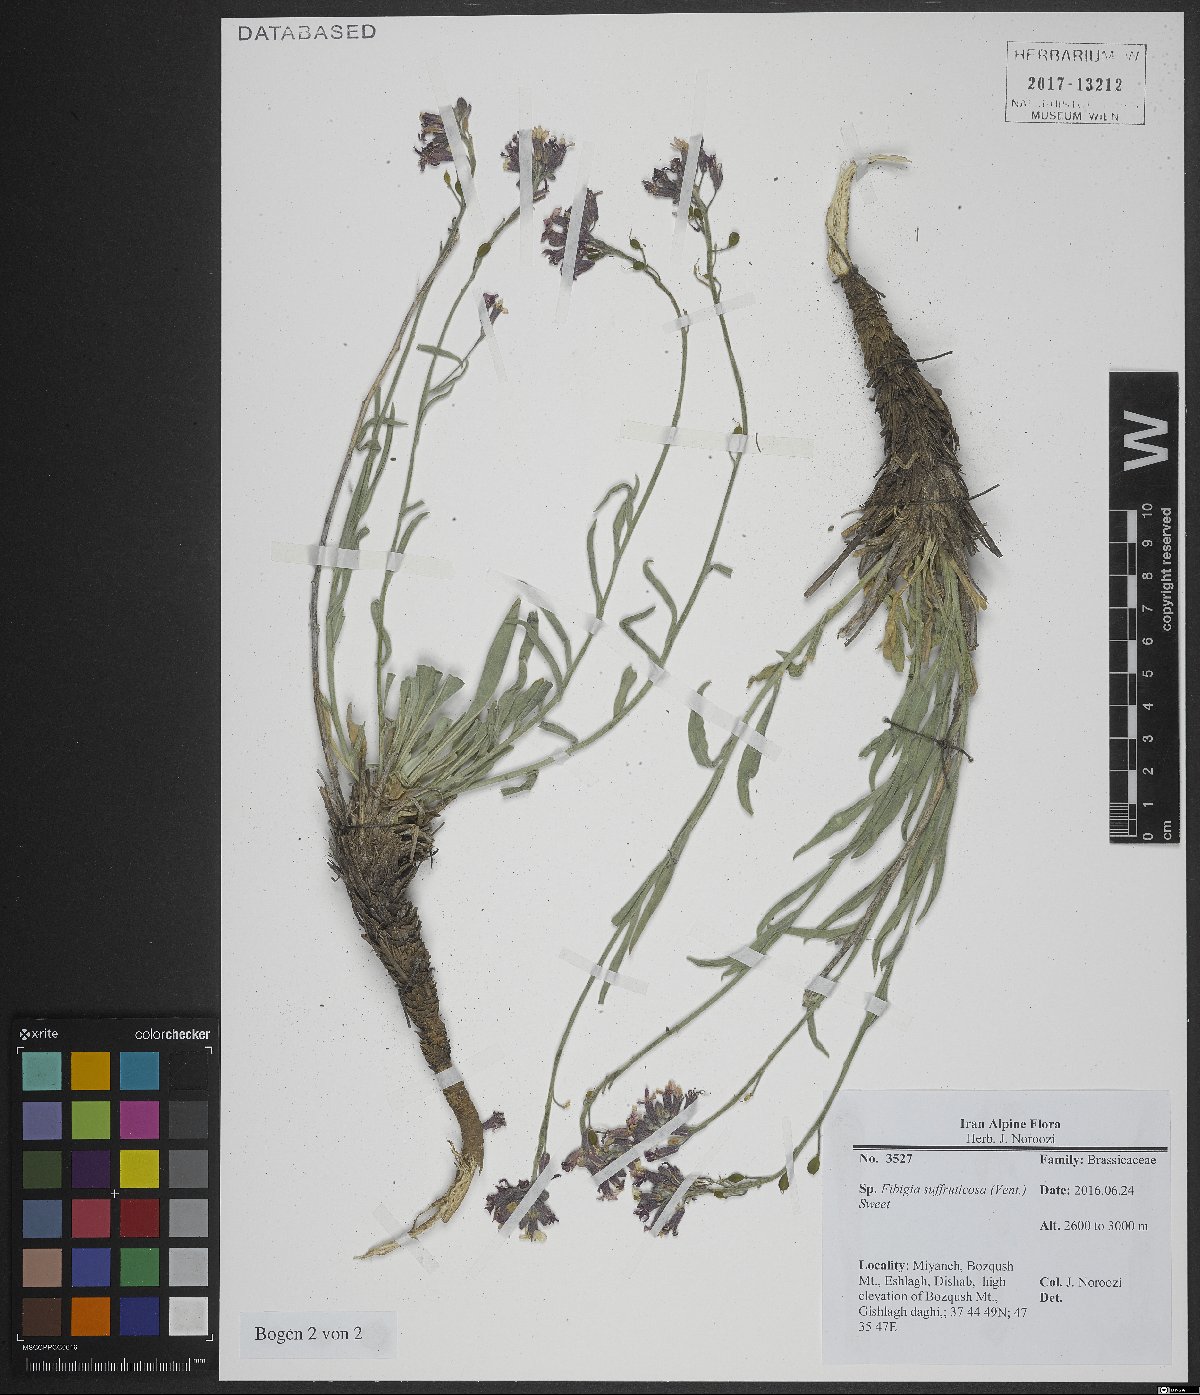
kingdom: Plantae
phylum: Tracheophyta
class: Magnoliopsida
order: Brassicales
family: Brassicaceae
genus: Brachypus
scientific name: Brachypus suffruticosus
